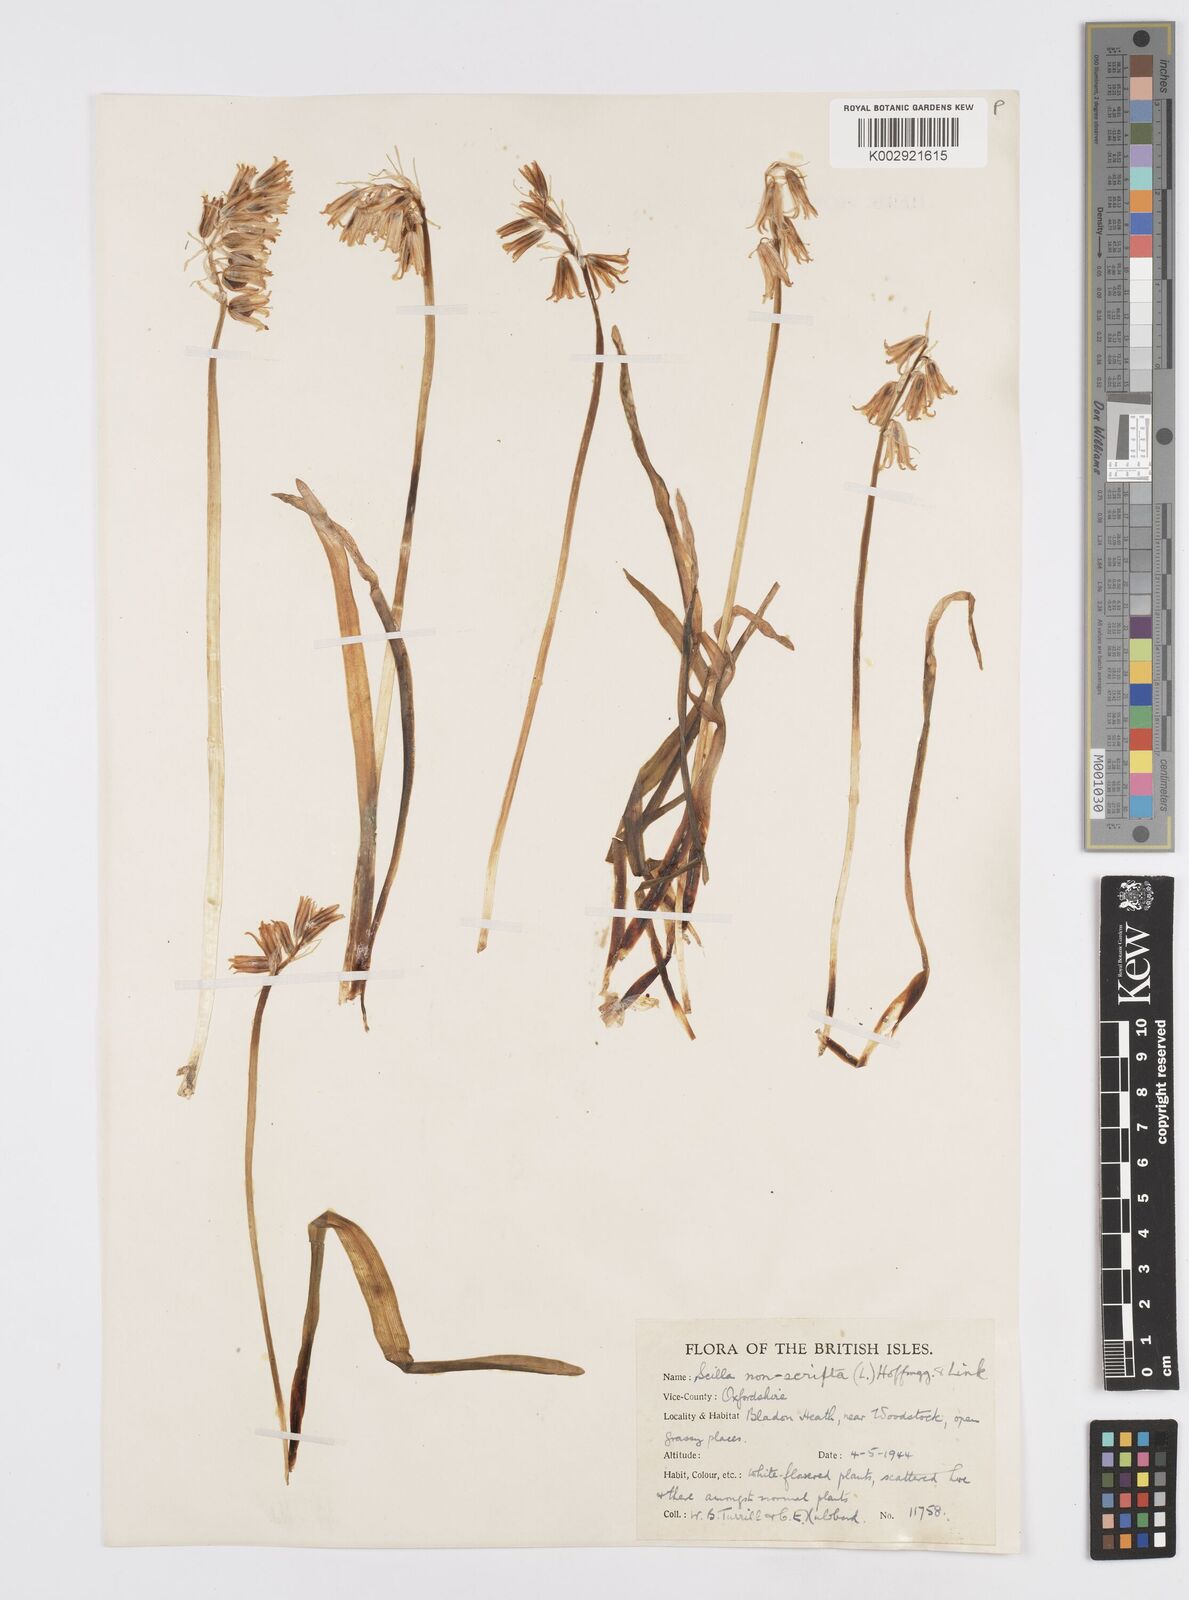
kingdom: Plantae
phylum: Tracheophyta
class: Liliopsida
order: Asparagales
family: Asparagaceae
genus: Hyacinthoides
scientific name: Hyacinthoides non-scripta
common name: Bluebell
